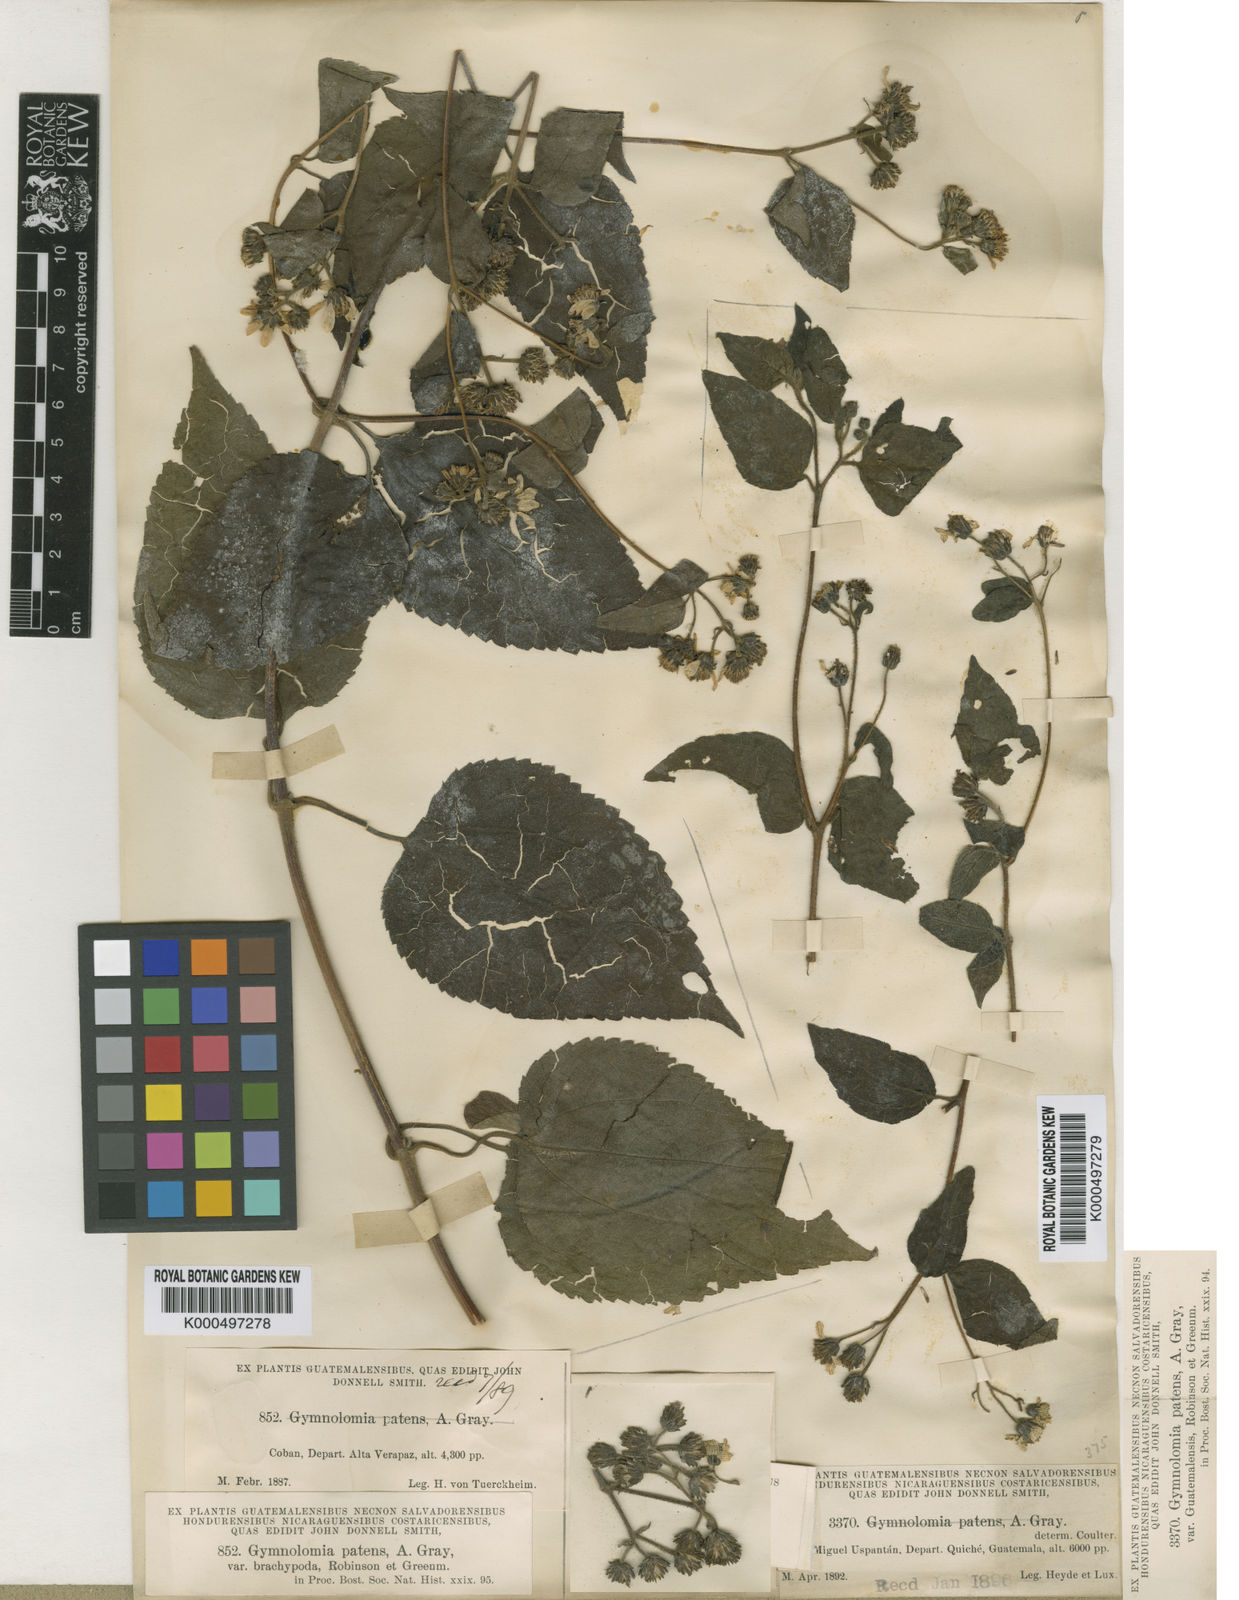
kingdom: Plantae
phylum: Tracheophyta
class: Magnoliopsida
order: Asterales
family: Asteraceae
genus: Hymenostephium
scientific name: Hymenostephium cordatum
